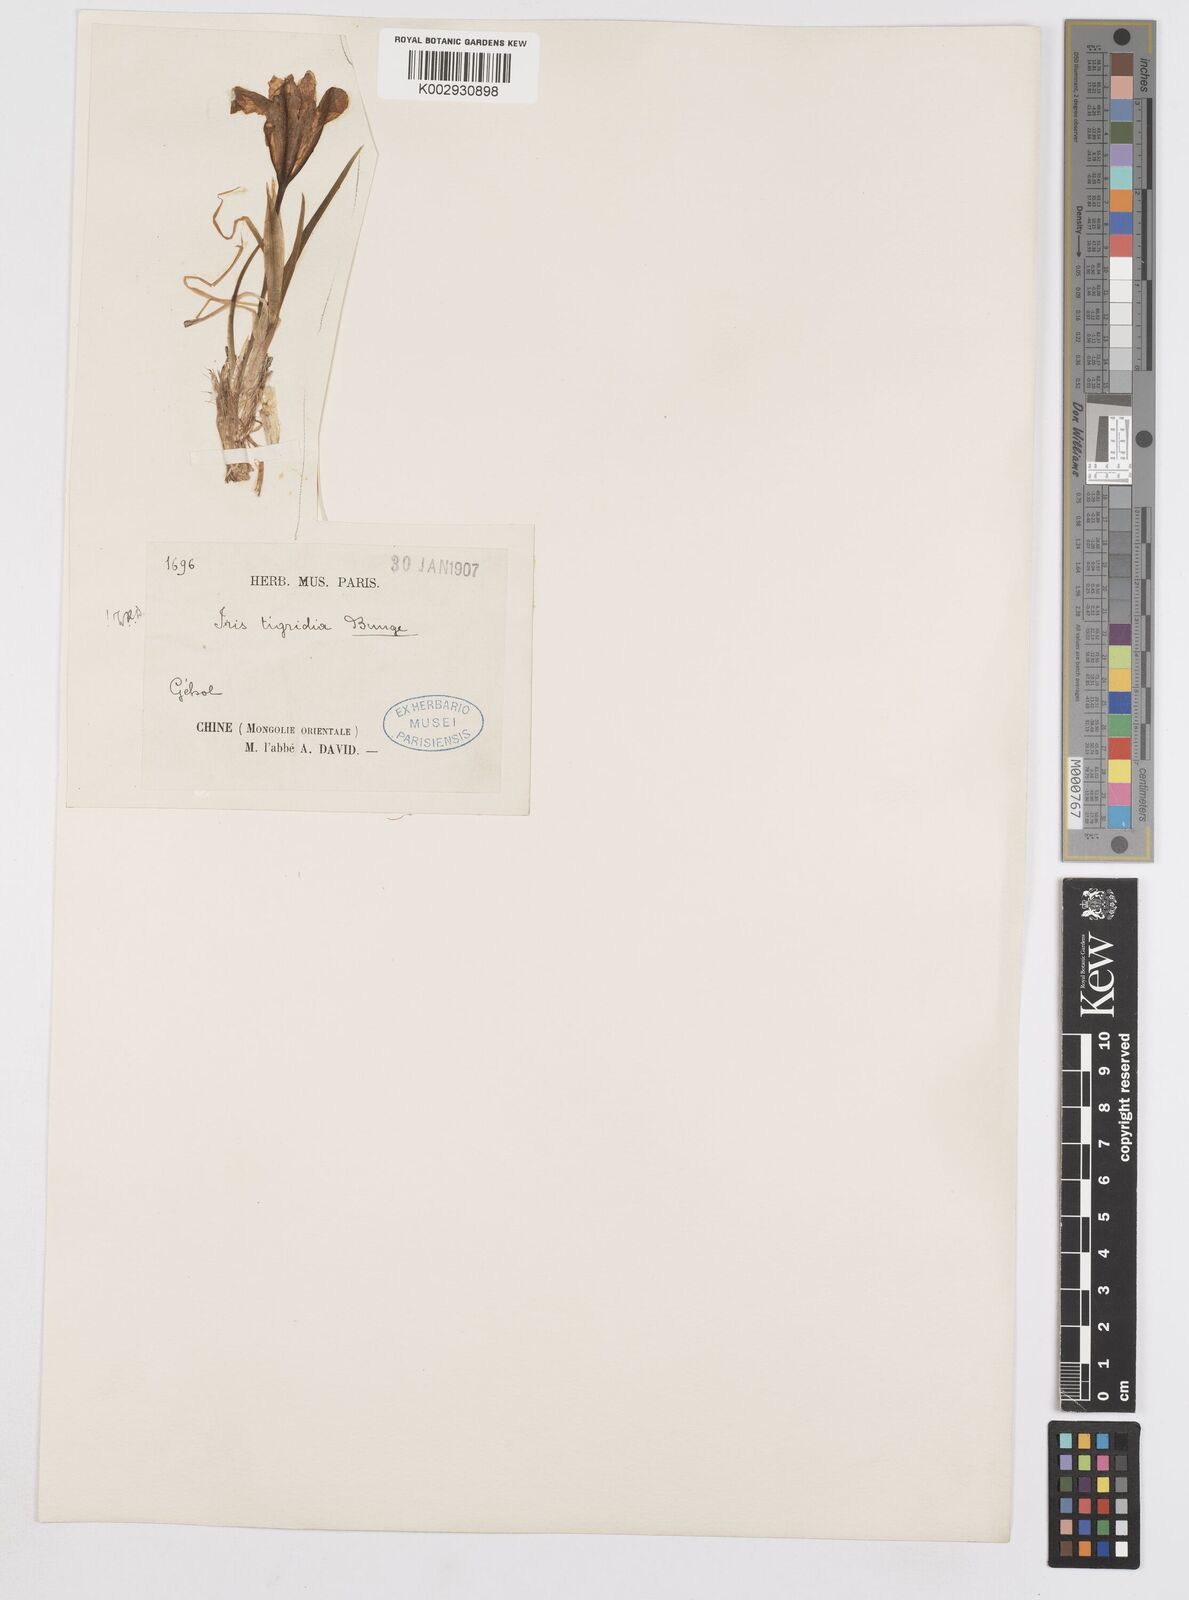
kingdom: Plantae
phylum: Tracheophyta
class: Liliopsida
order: Asparagales
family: Iridaceae
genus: Iris
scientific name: Iris tigridia
